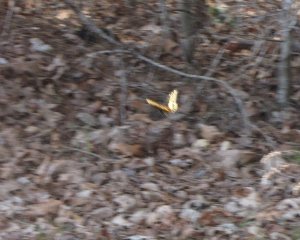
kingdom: Animalia
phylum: Arthropoda
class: Insecta
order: Lepidoptera
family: Papilionidae
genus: Papilio
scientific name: Papilio polyxenes
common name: Black Swallowtail
